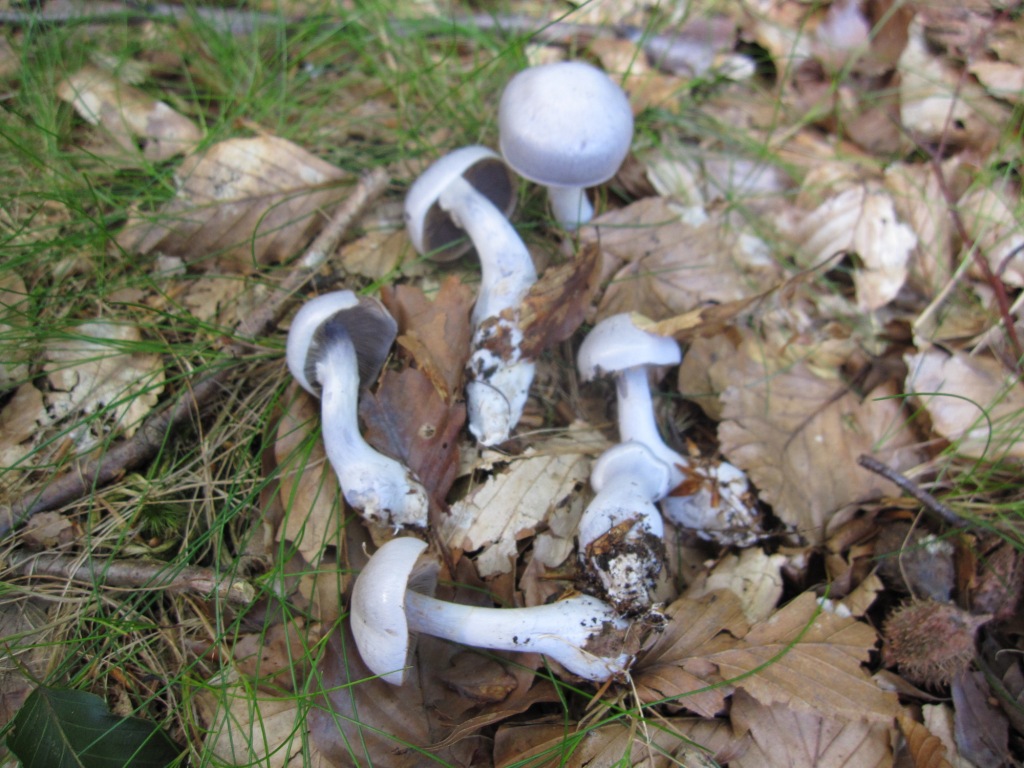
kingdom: Fungi
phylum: Basidiomycota
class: Agaricomycetes
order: Agaricales
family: Cortinariaceae
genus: Cortinarius
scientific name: Cortinarius alboviolaceus
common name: lysviolet slørhat
